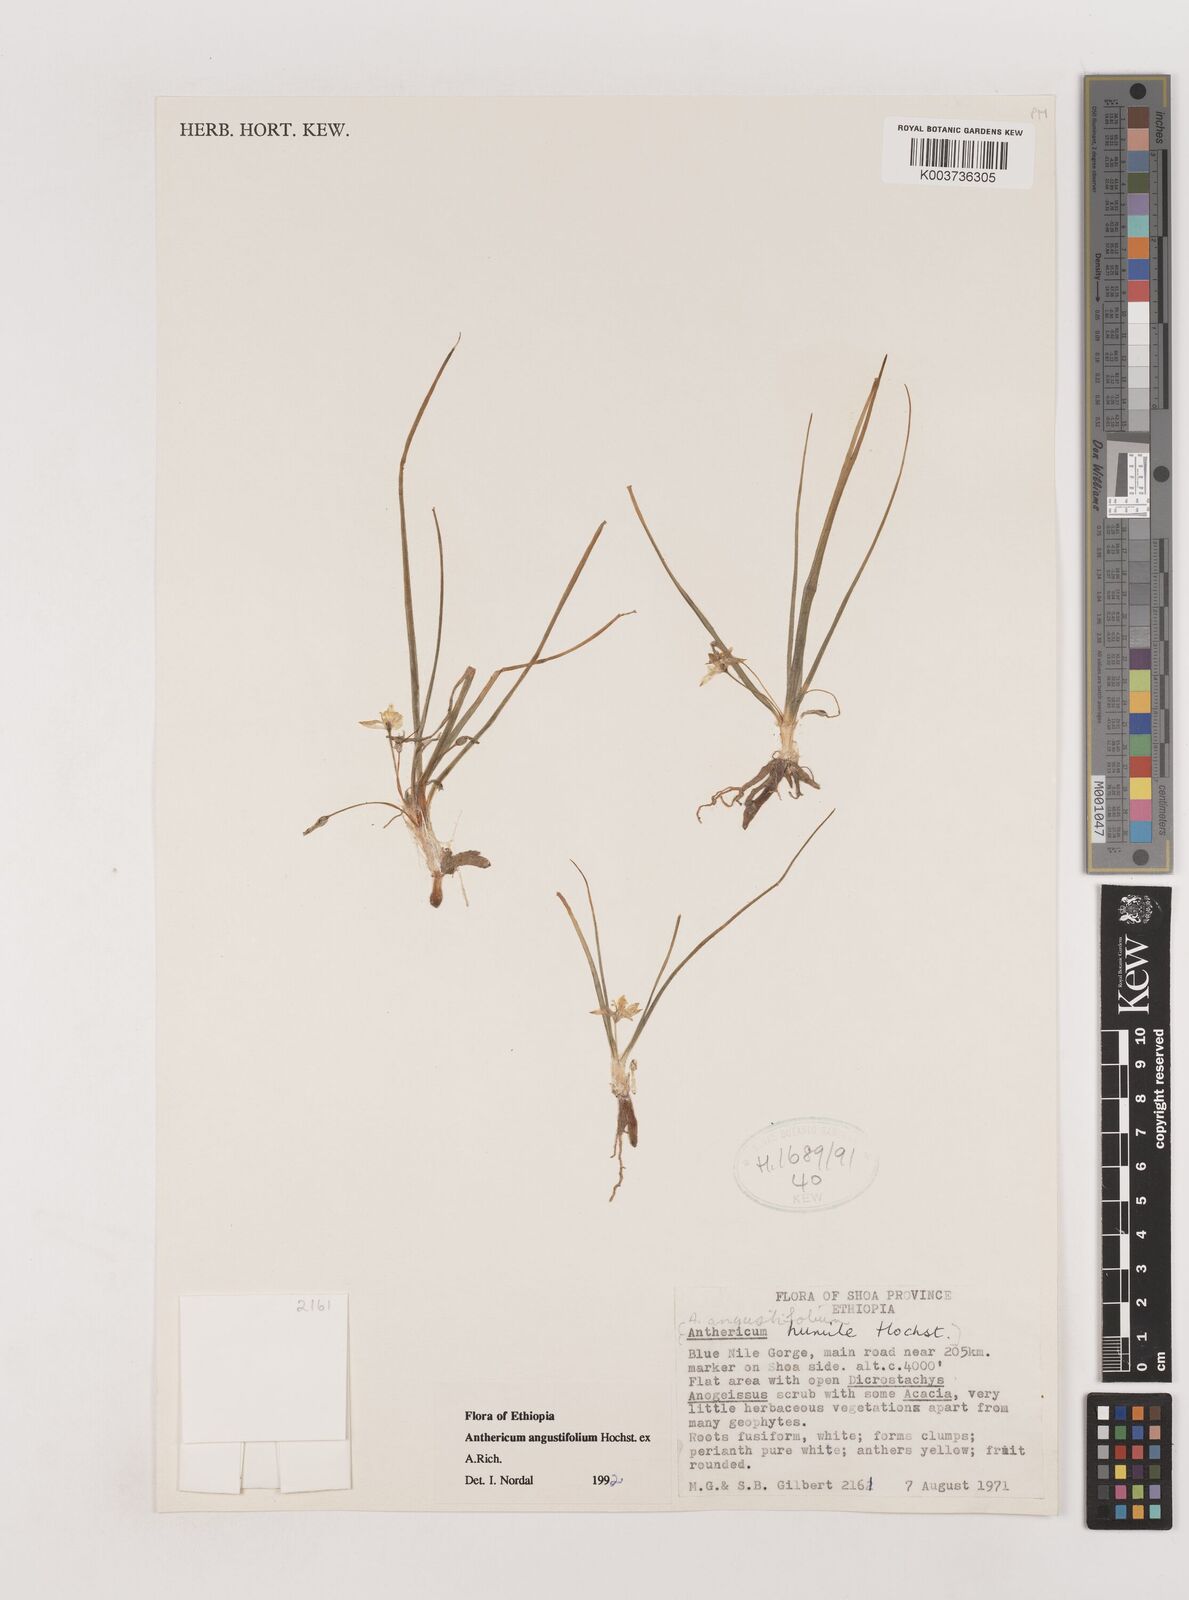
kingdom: Plantae
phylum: Tracheophyta
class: Liliopsida
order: Asparagales
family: Asparagaceae
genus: Anthericum
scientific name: Anthericum angustifolium
